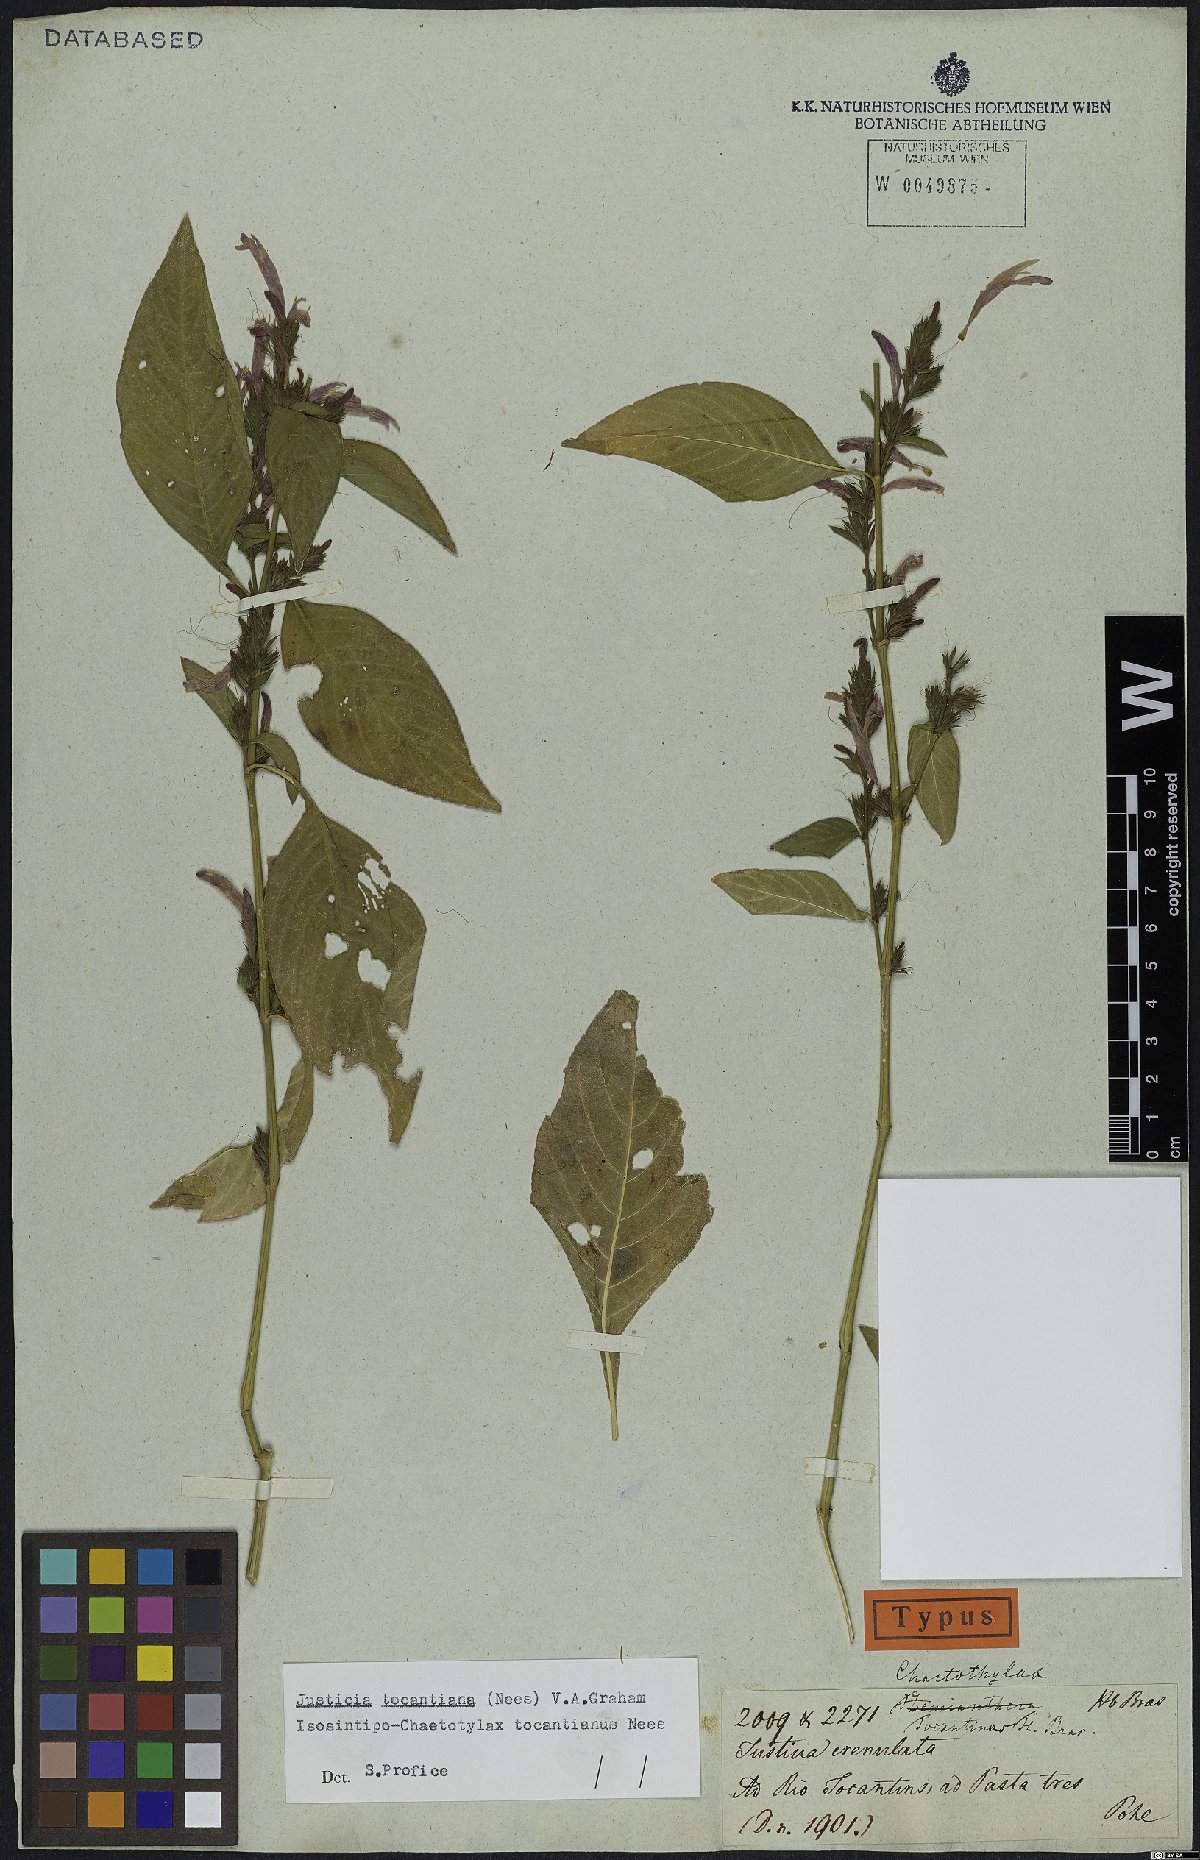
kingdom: Plantae
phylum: Tracheophyta
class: Magnoliopsida
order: Lamiales
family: Acanthaceae
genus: Justicia
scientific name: Justicia tocantina
